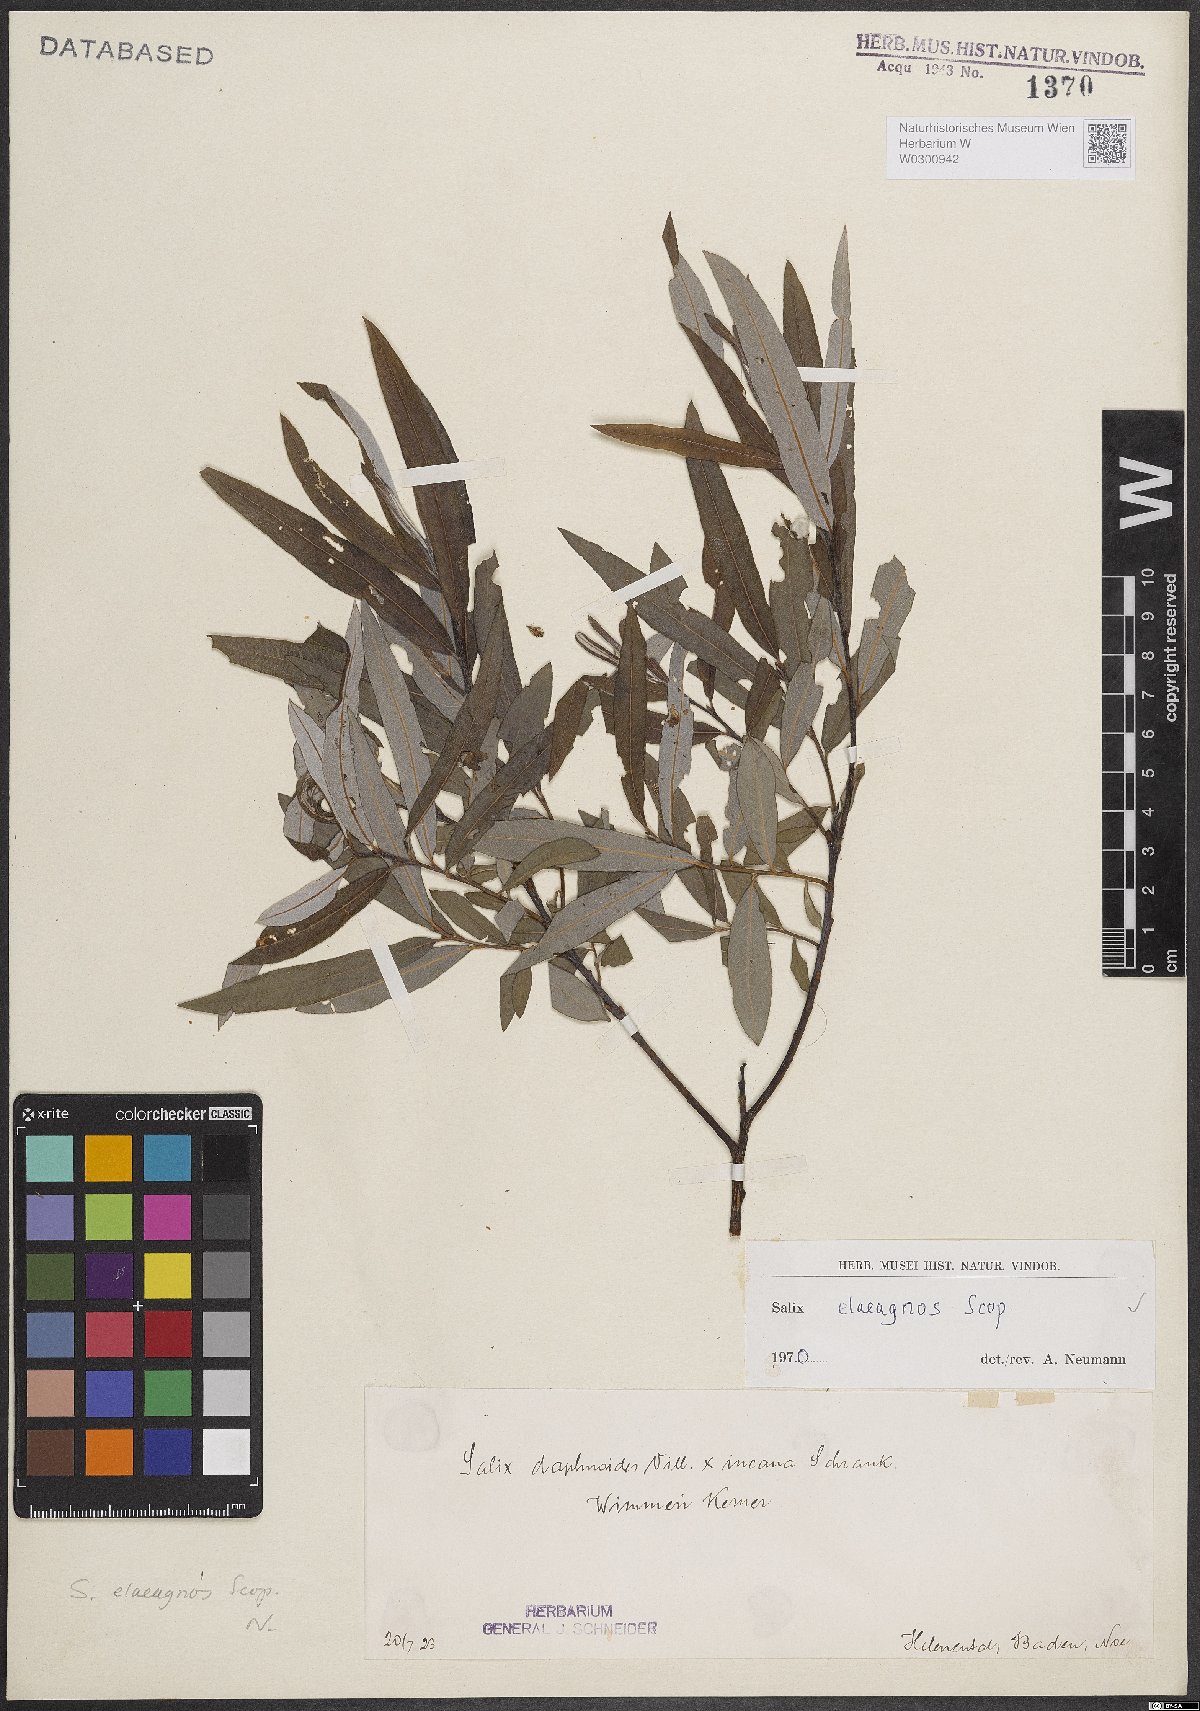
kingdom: Plantae
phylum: Tracheophyta
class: Magnoliopsida
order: Malpighiales
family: Salicaceae
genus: Salix
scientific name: Salix eleagnos
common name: Elaeagnus willow
